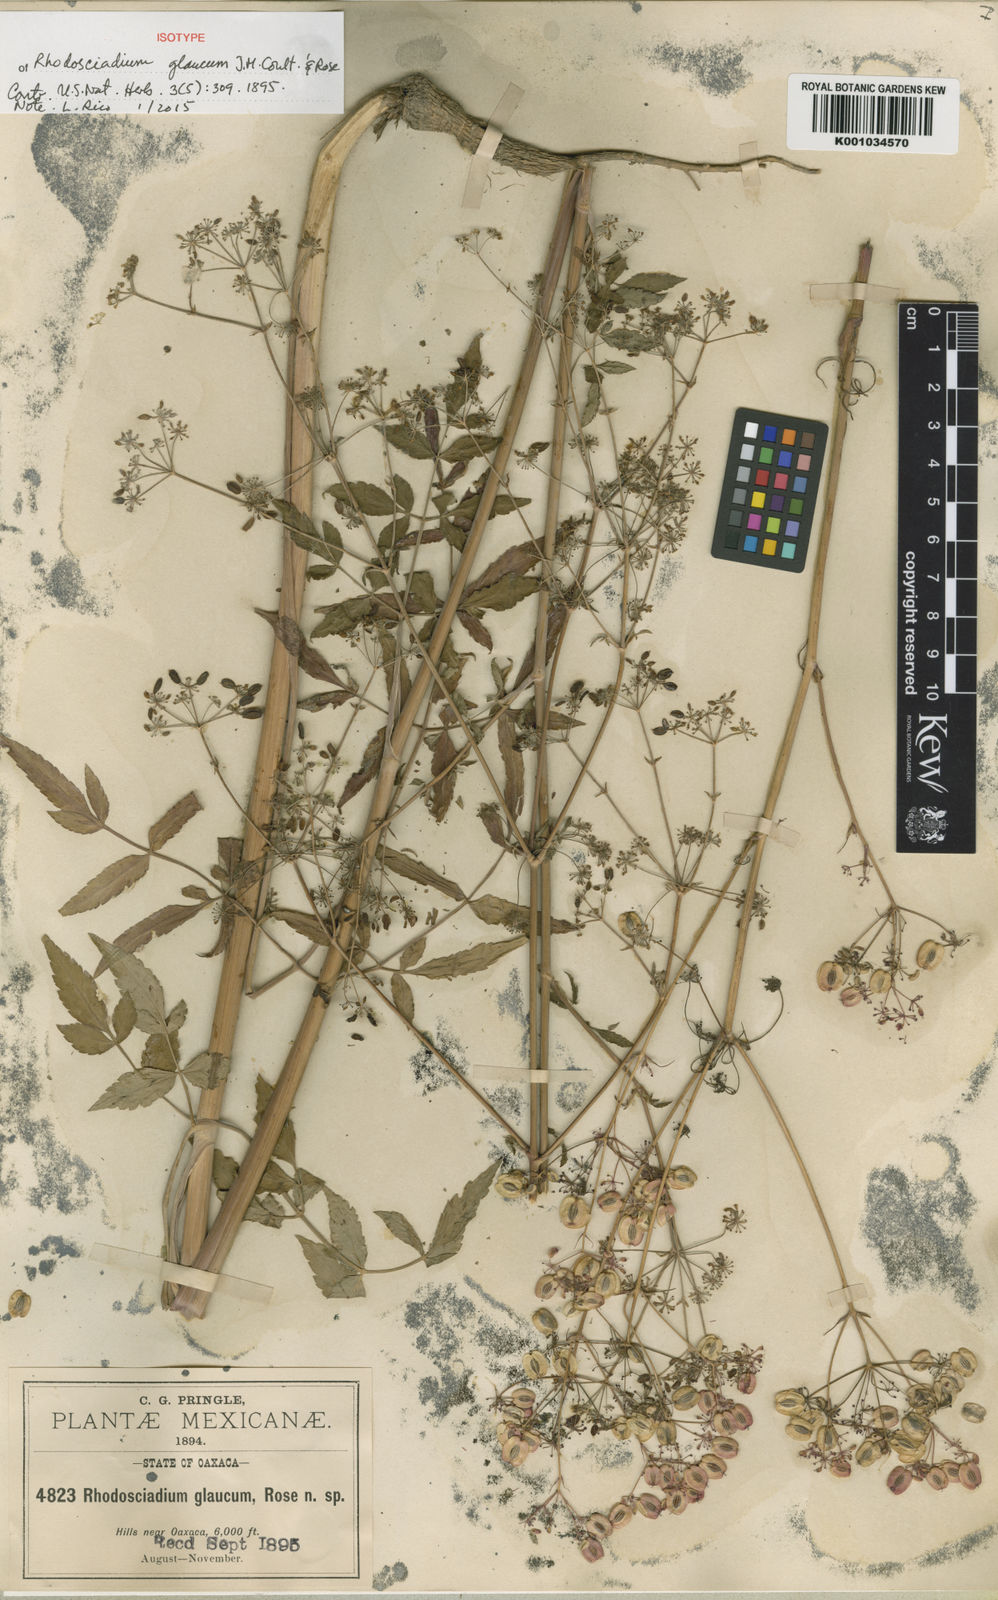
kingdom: Plantae
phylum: Tracheophyta
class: Magnoliopsida
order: Apiales
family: Apiaceae
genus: Rhodosciadium
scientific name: Rhodosciadium glaucum
